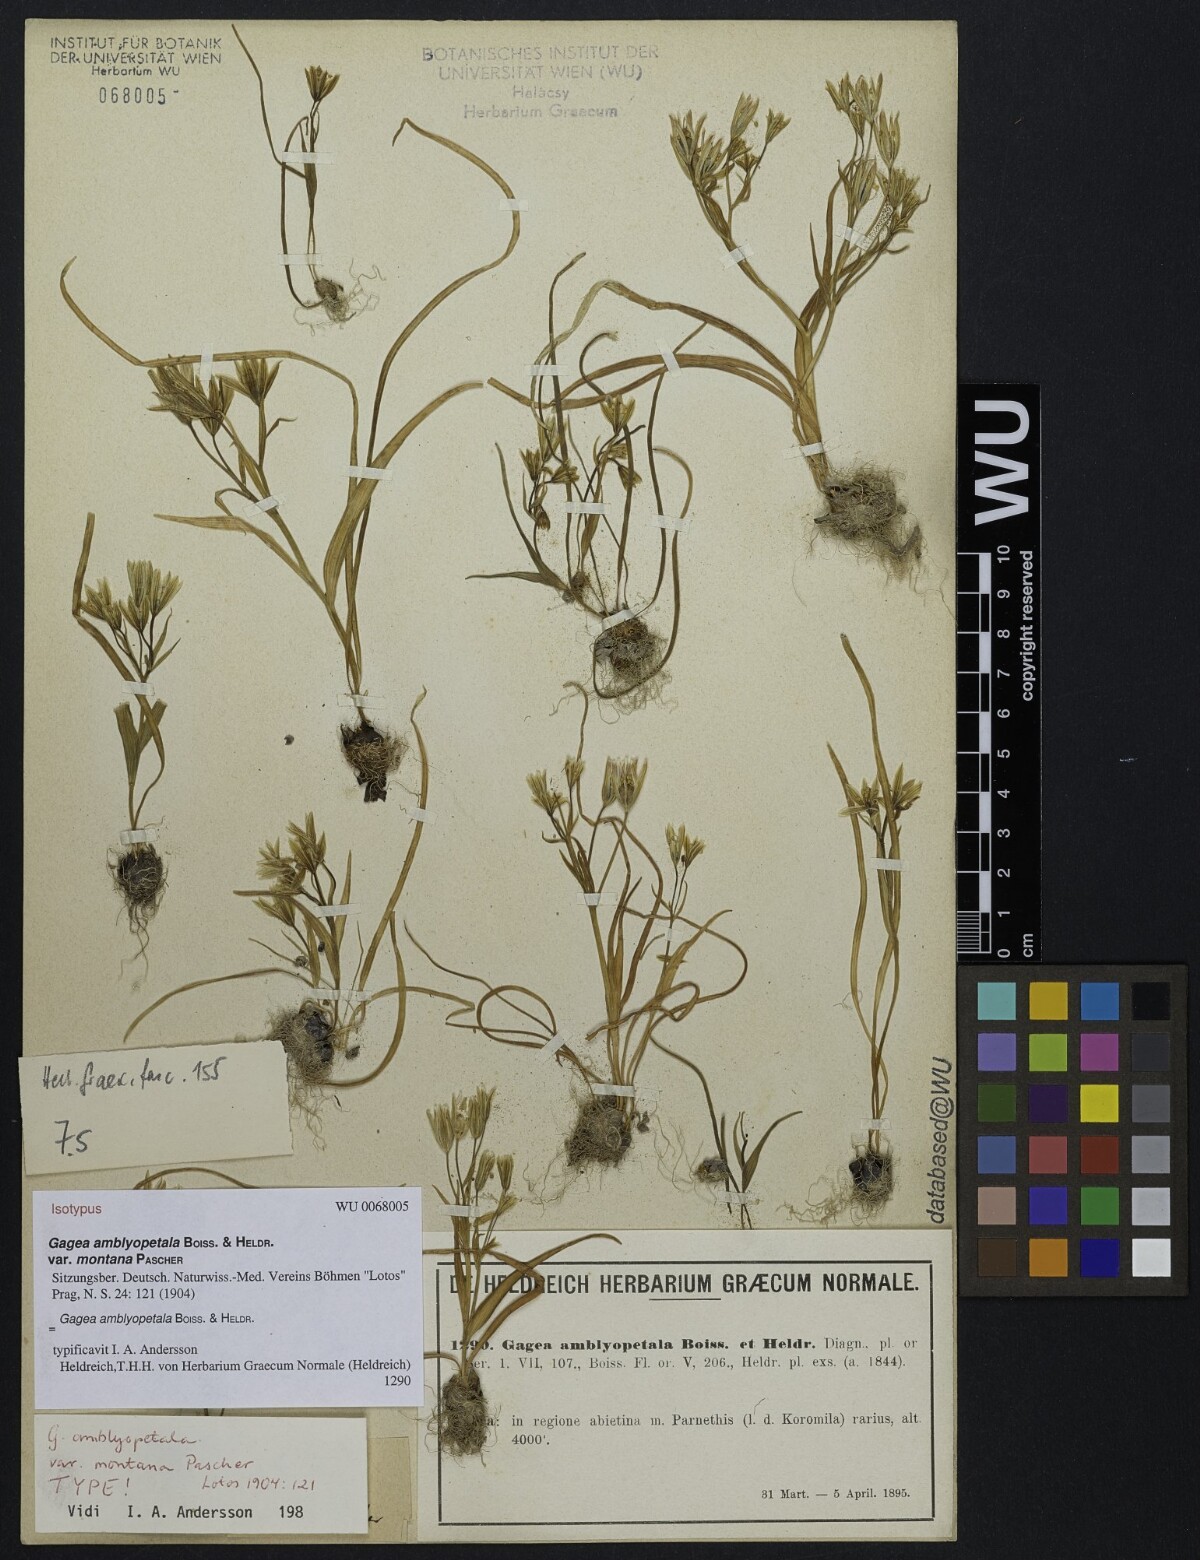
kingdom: Plantae
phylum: Tracheophyta
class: Liliopsida
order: Liliales
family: Liliaceae
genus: Gagea
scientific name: Gagea amblyopetala
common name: Blunt-flowered gagea
